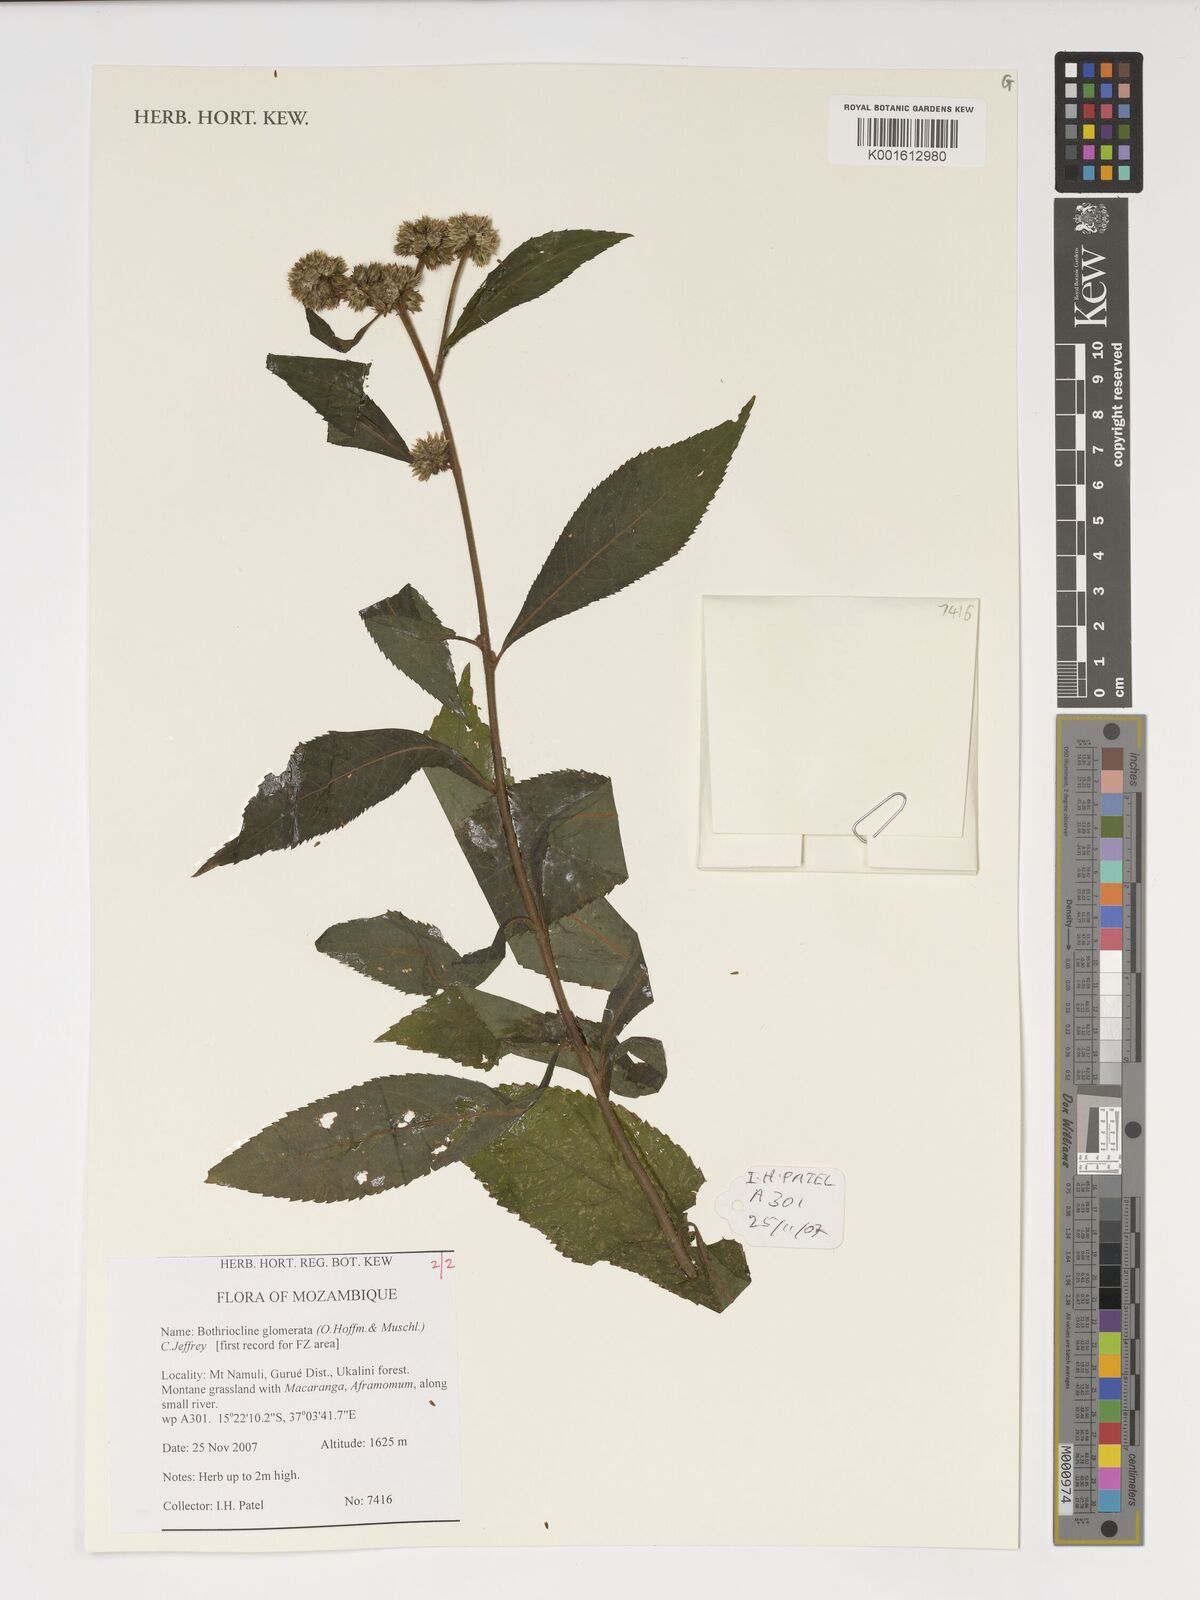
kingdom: Plantae
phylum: Tracheophyta
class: Magnoliopsida
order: Asterales
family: Asteraceae
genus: Bothriocline
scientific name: Bothriocline glomerata
